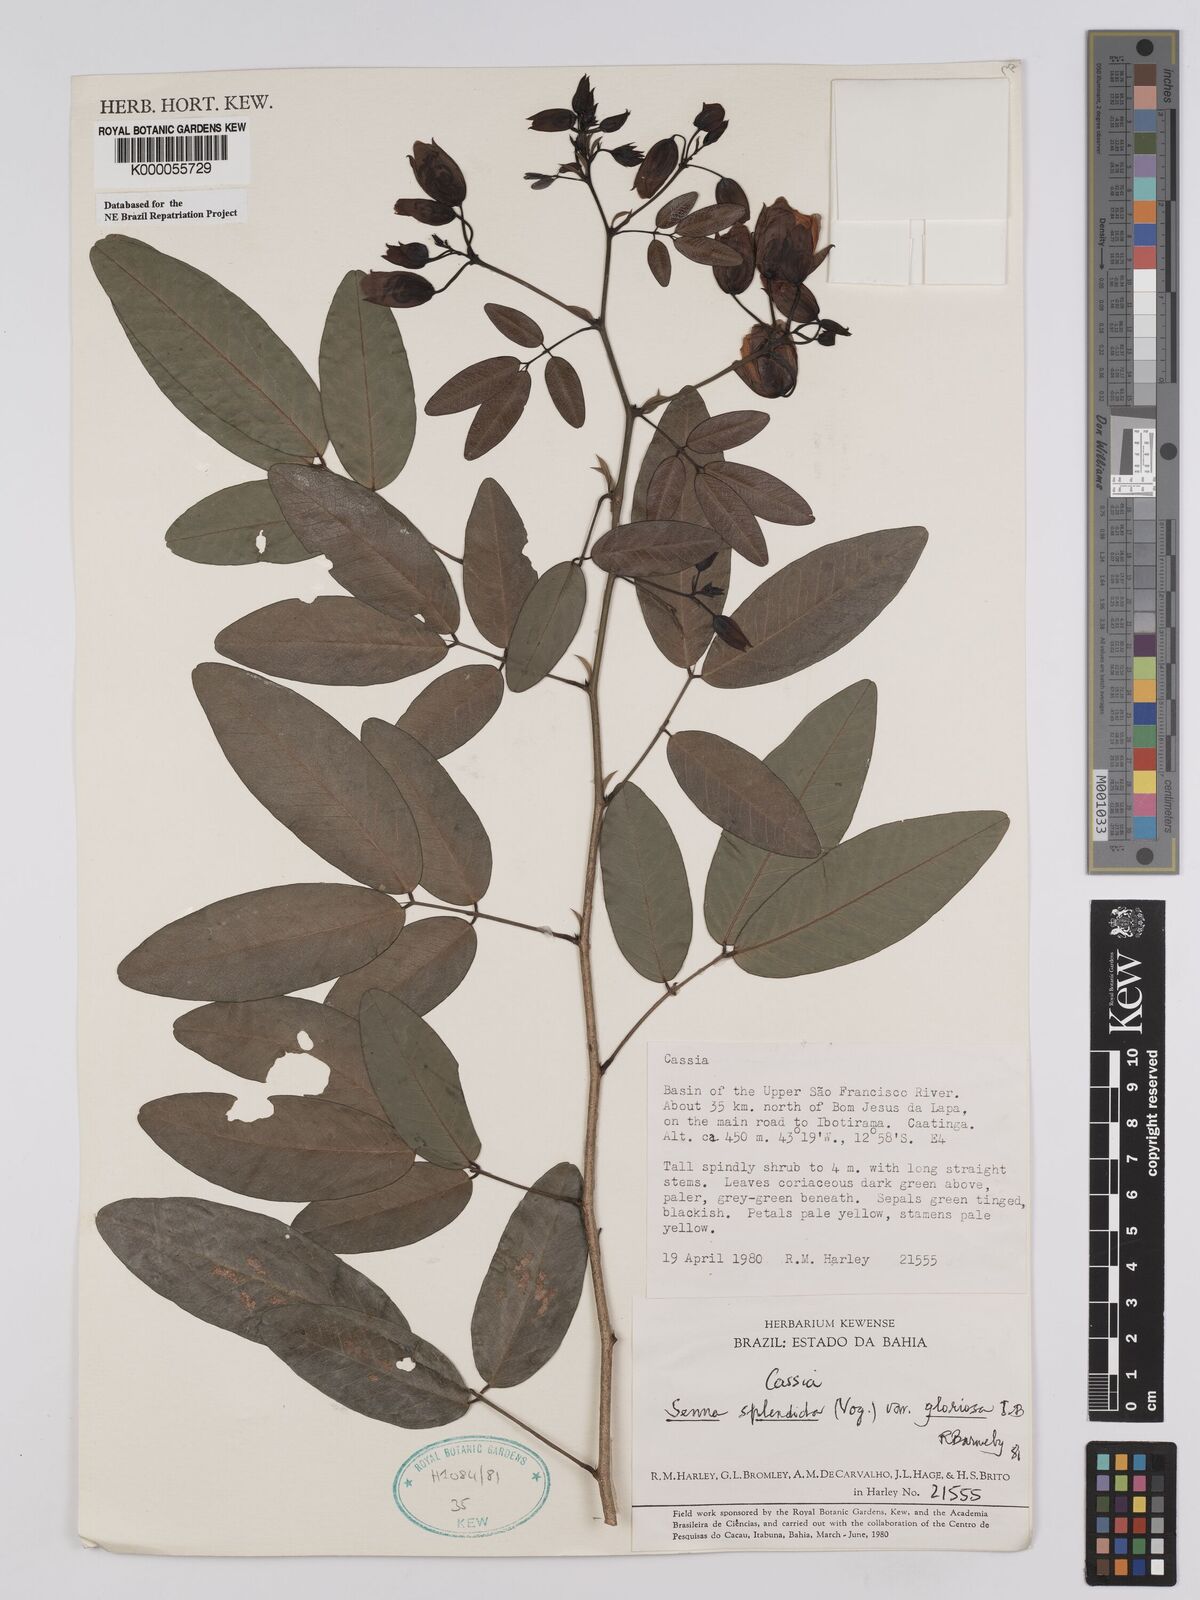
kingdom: Plantae
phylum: Tracheophyta
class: Magnoliopsida
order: Fabales
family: Fabaceae
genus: Senna
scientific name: Senna splendida
